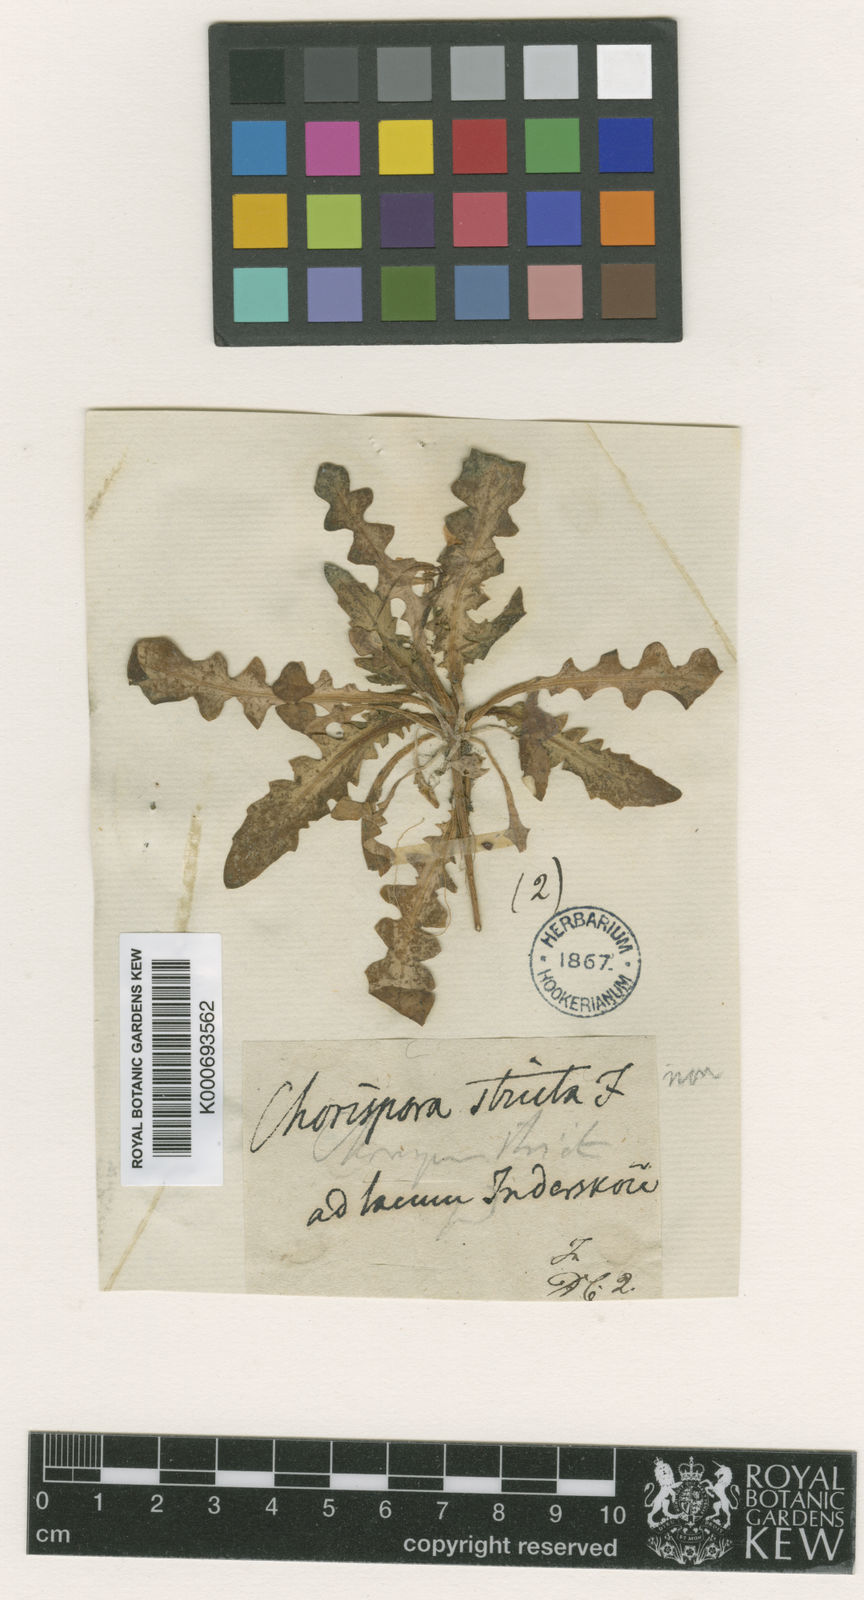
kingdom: Plantae
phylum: Tracheophyta
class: Magnoliopsida
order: Brassicales
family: Brassicaceae
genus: Chorispora
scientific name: Chorispora tenella
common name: Crossflower
